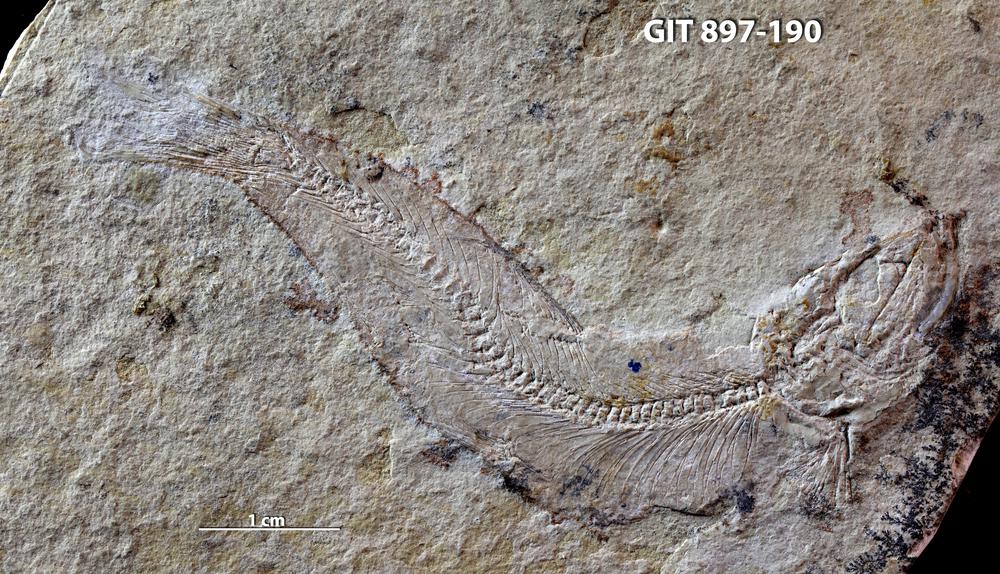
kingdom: Animalia
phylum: Chordata
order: Salmoniformes
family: Orthogonikleithridae
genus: Leptolepides
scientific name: Leptolepides sprattiformis
